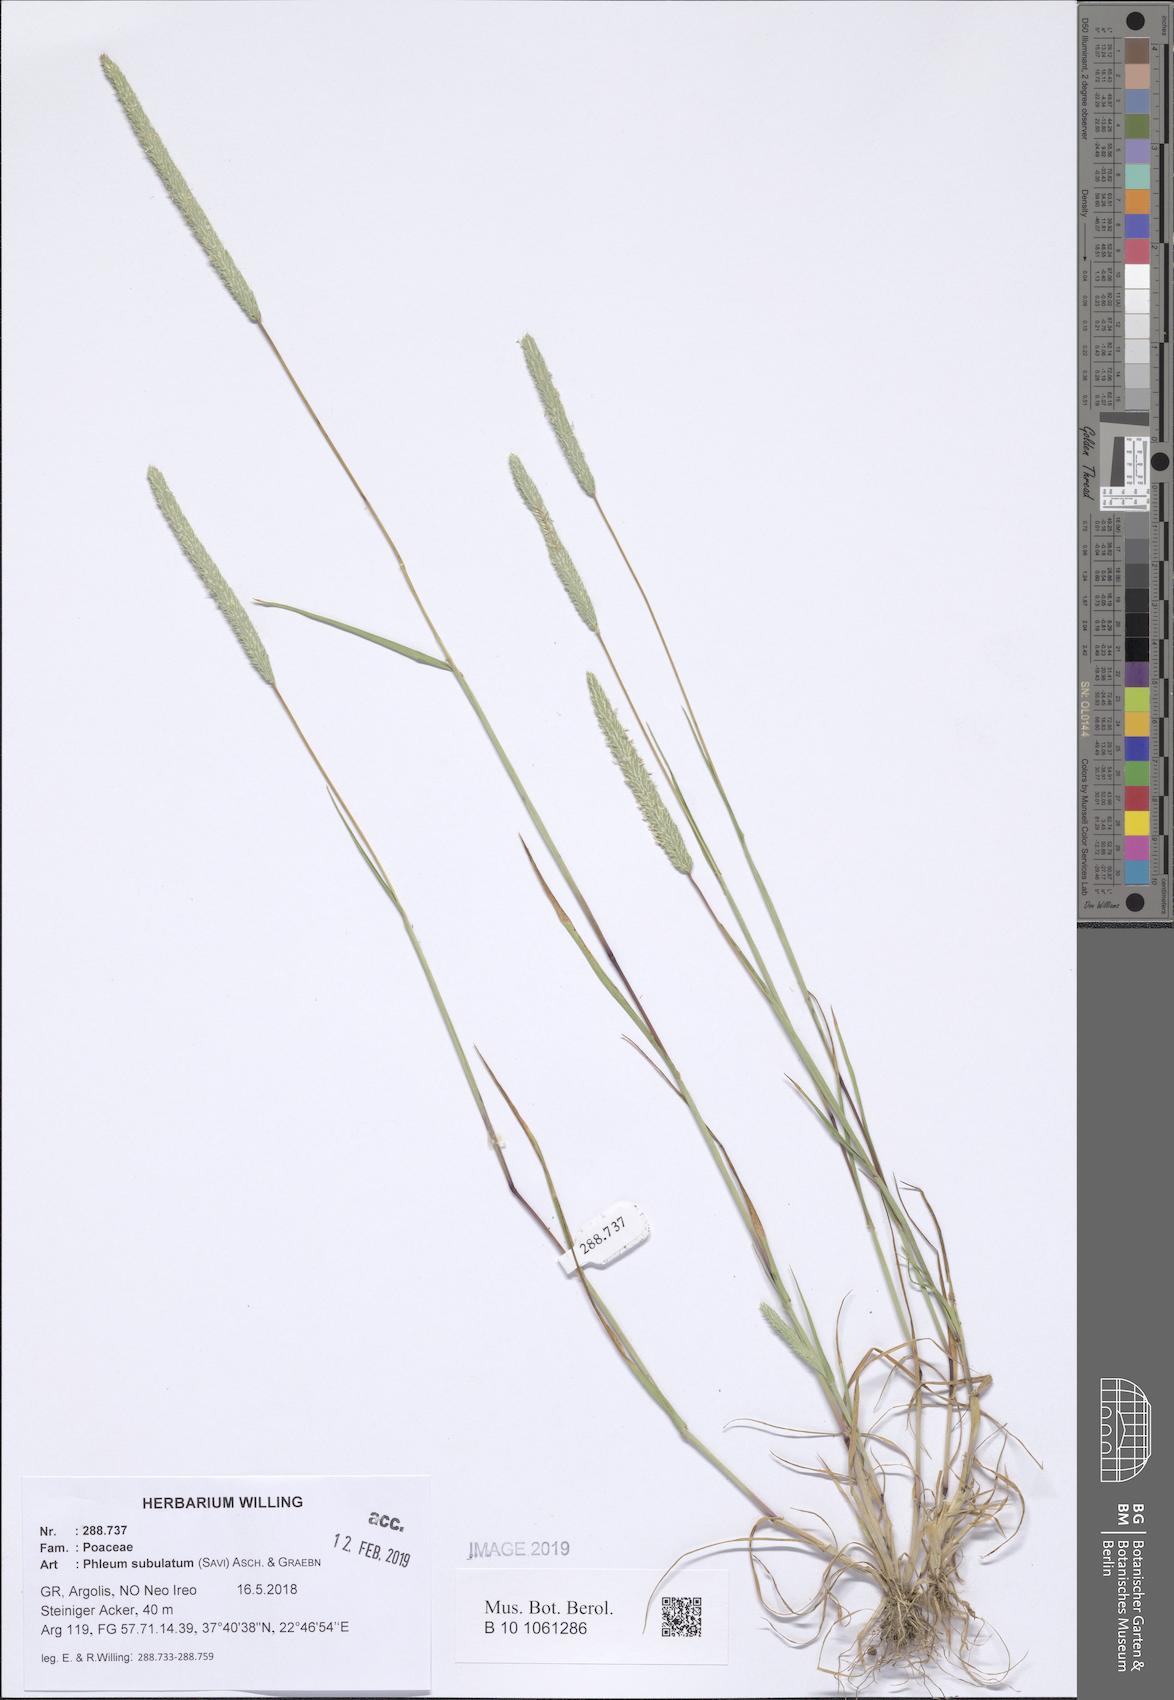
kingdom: Plantae
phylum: Tracheophyta
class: Liliopsida
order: Poales
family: Poaceae
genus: Phleum
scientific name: Phleum subulatum
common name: Italian timothy
